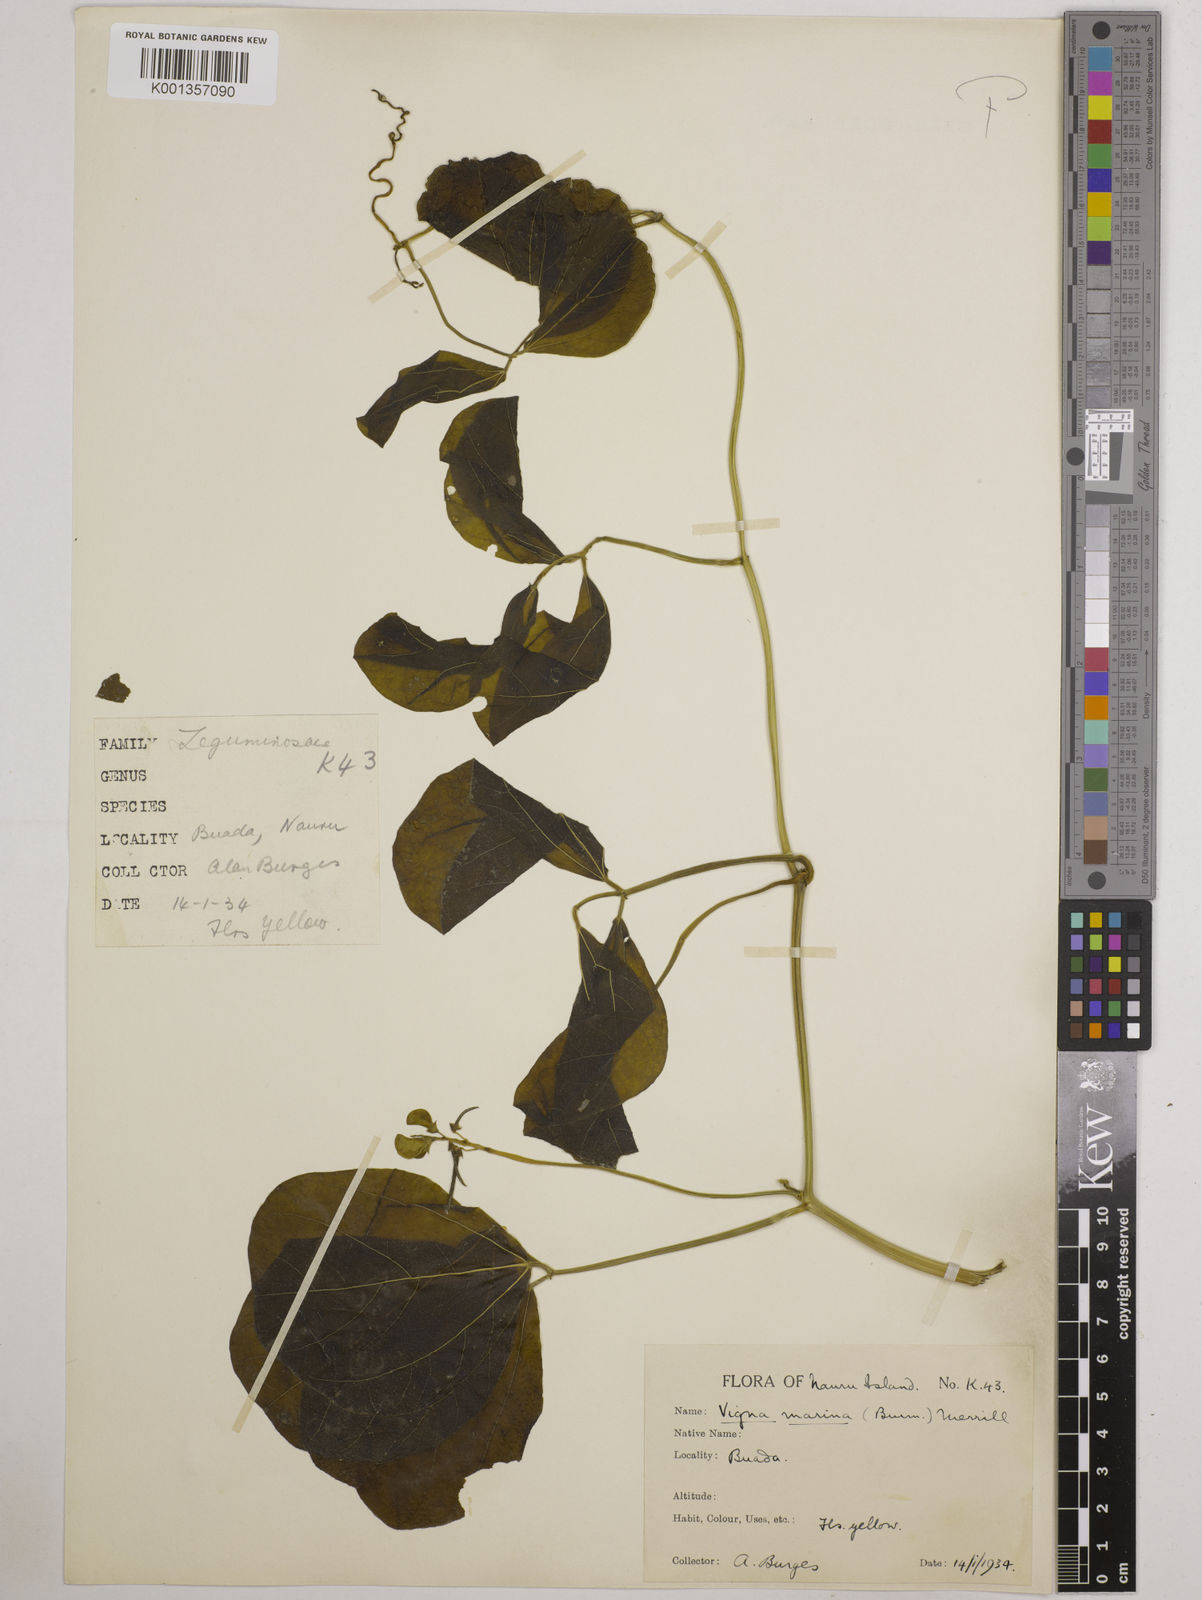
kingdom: Plantae
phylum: Tracheophyta
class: Magnoliopsida
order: Fabales
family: Fabaceae
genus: Vigna
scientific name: Vigna marina
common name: Dune-bean
